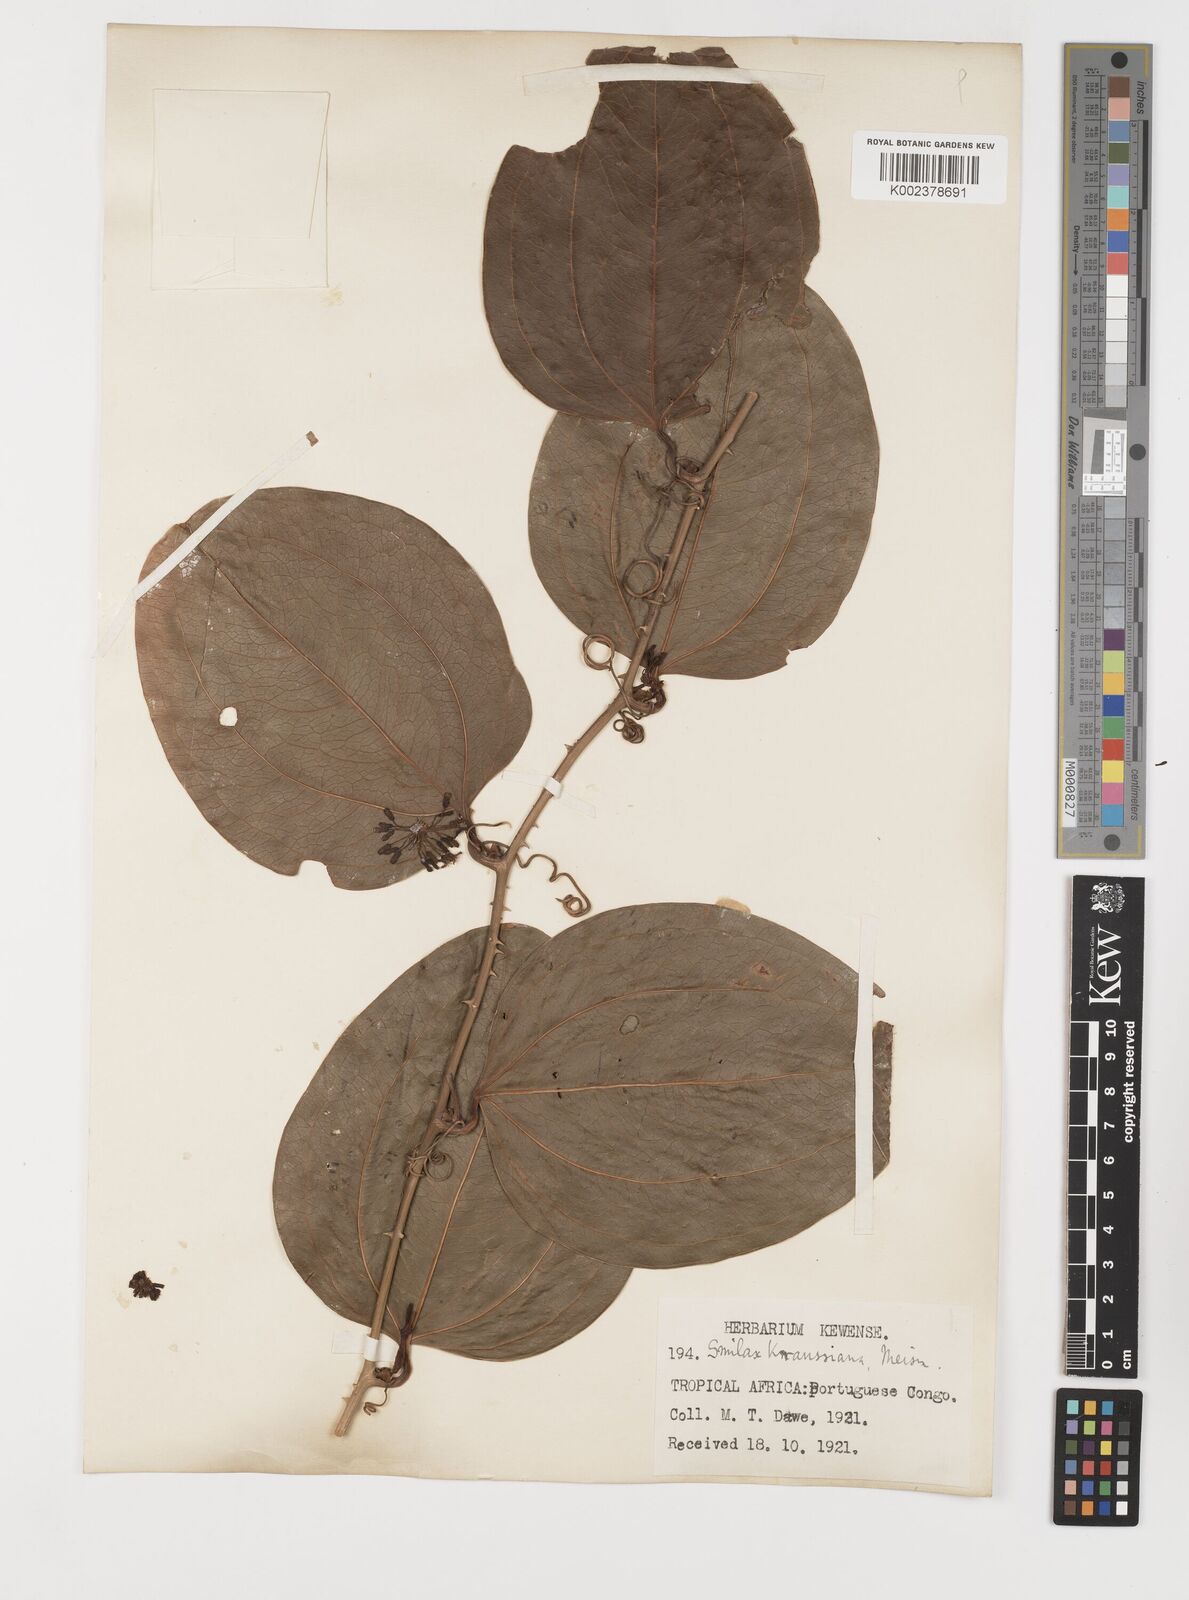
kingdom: Plantae
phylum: Tracheophyta
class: Liliopsida
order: Liliales
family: Smilacaceae
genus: Smilax
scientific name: Smilax anceps
